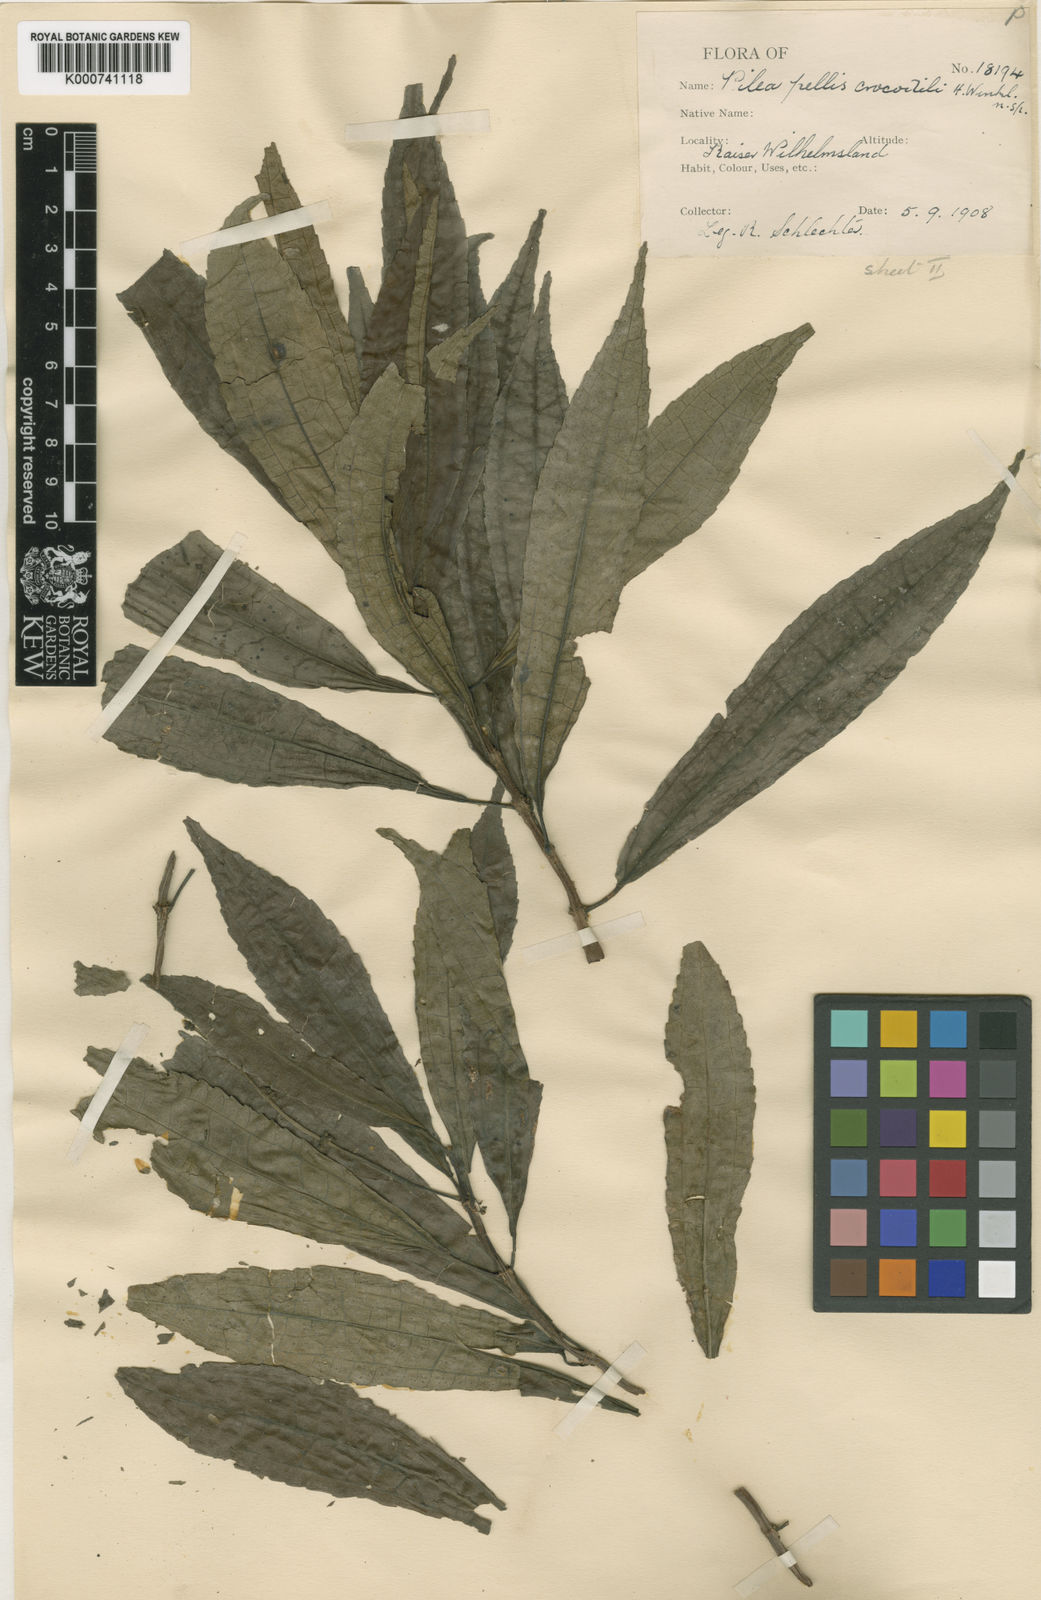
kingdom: Plantae
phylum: Tracheophyta
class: Magnoliopsida
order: Rosales
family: Urticaceae
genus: Pilea
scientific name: Pilea cuneata
